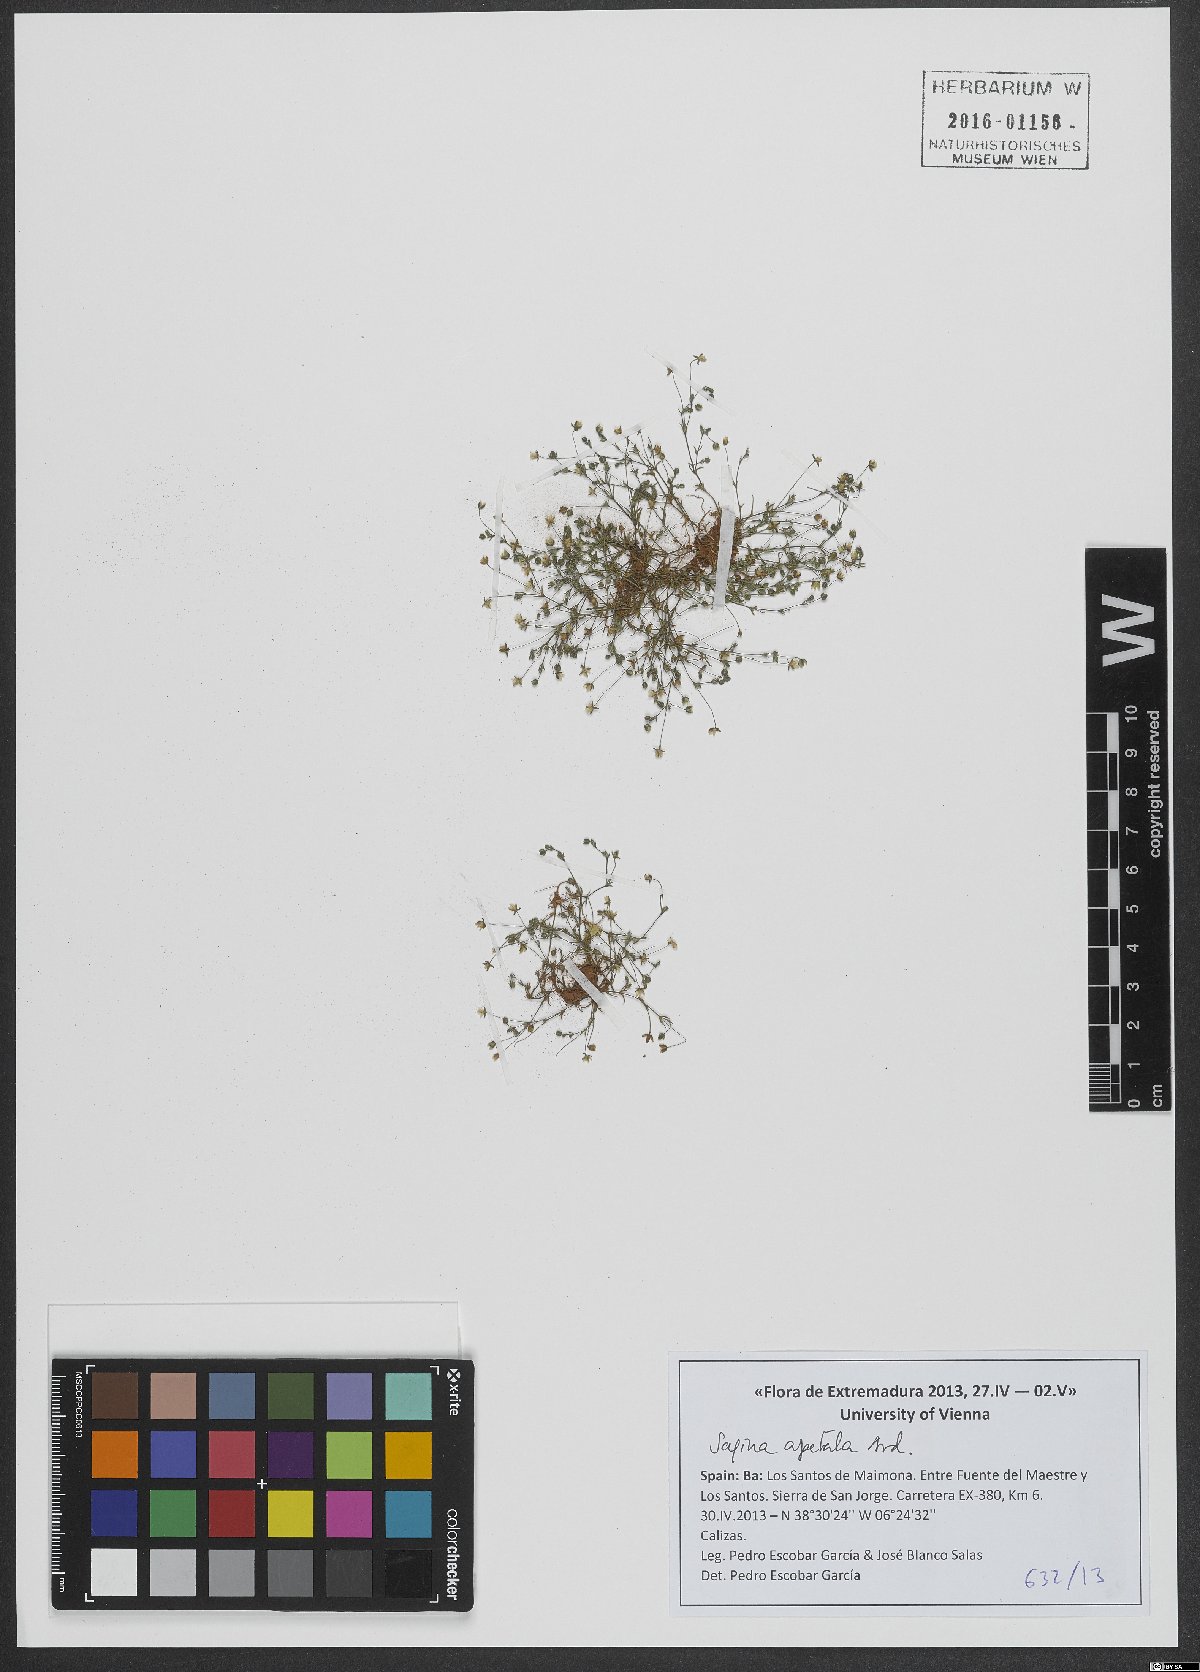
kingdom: Plantae
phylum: Tracheophyta
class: Magnoliopsida
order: Caryophyllales
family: Caryophyllaceae
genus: Sagina
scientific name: Sagina apetala
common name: Annual pearlwort
